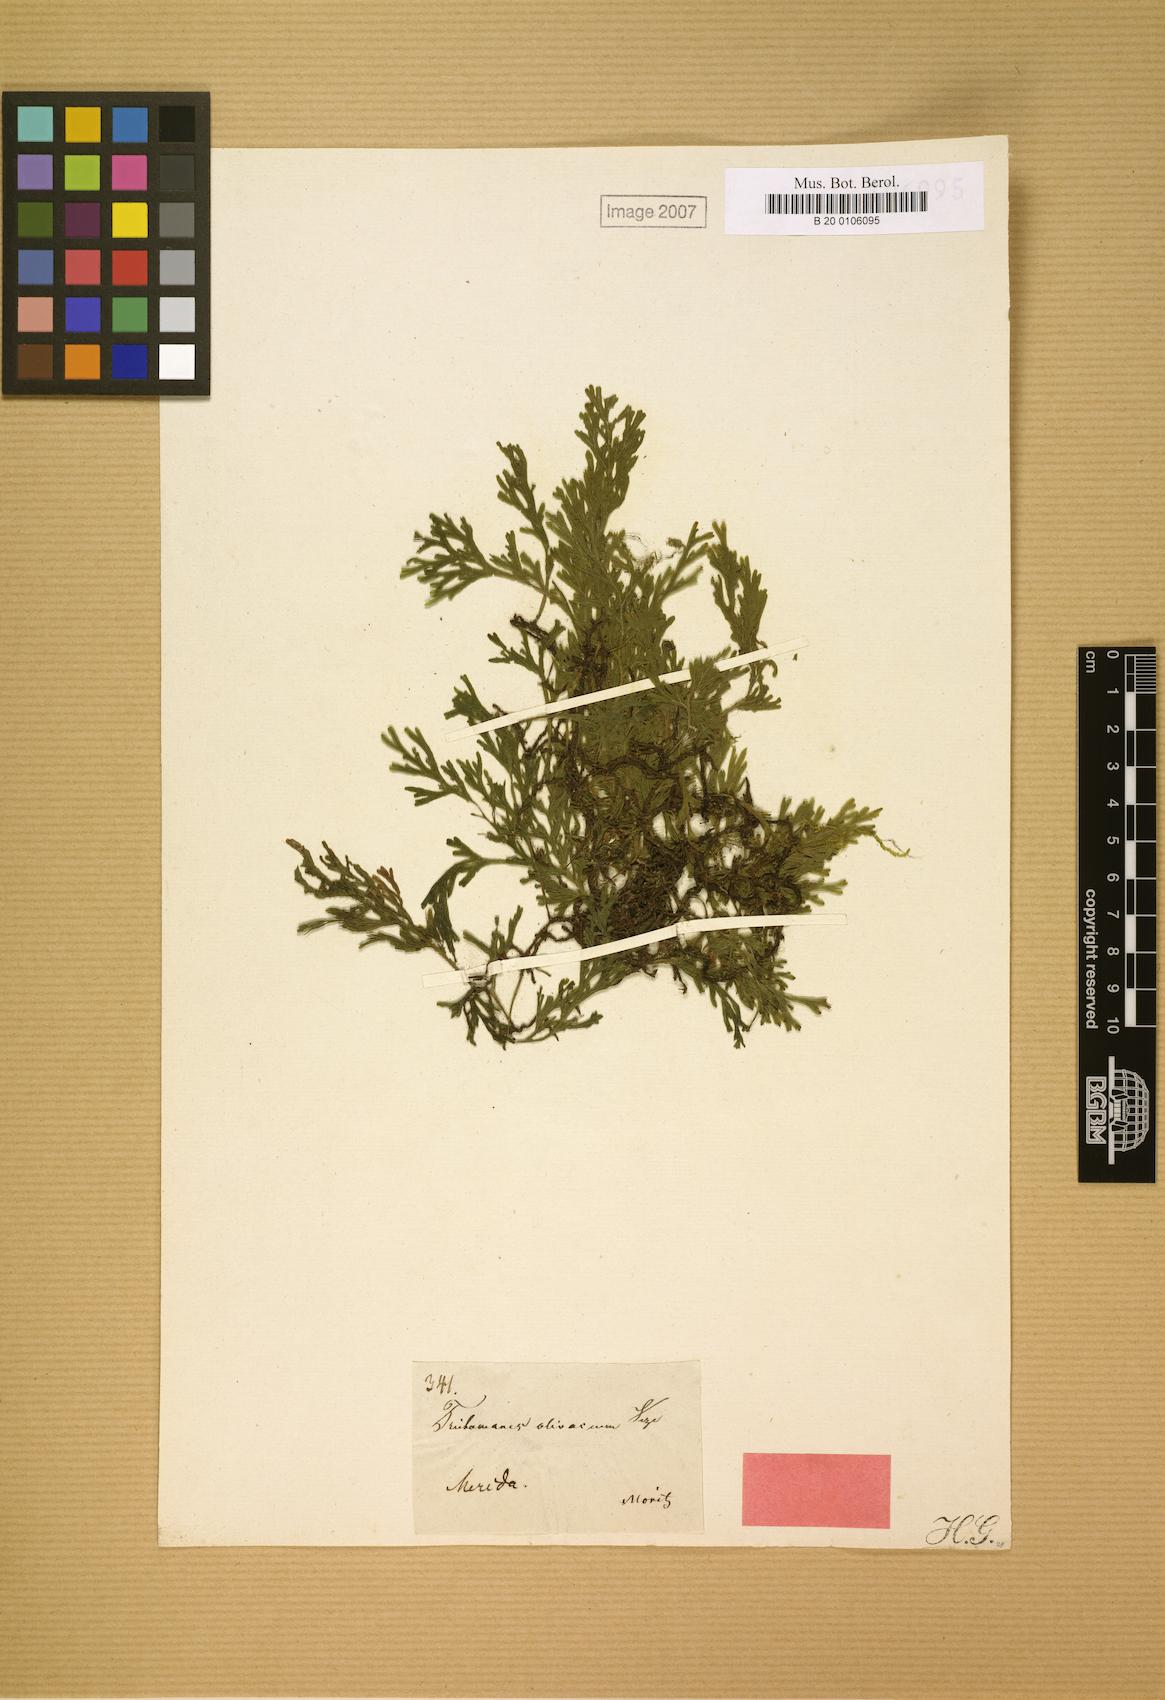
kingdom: Plantae
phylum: Tracheophyta
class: Polypodiopsida
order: Hymenophyllales
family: Hymenophyllaceae
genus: Polyphlebium
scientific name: Polyphlebium pyxidiferum
